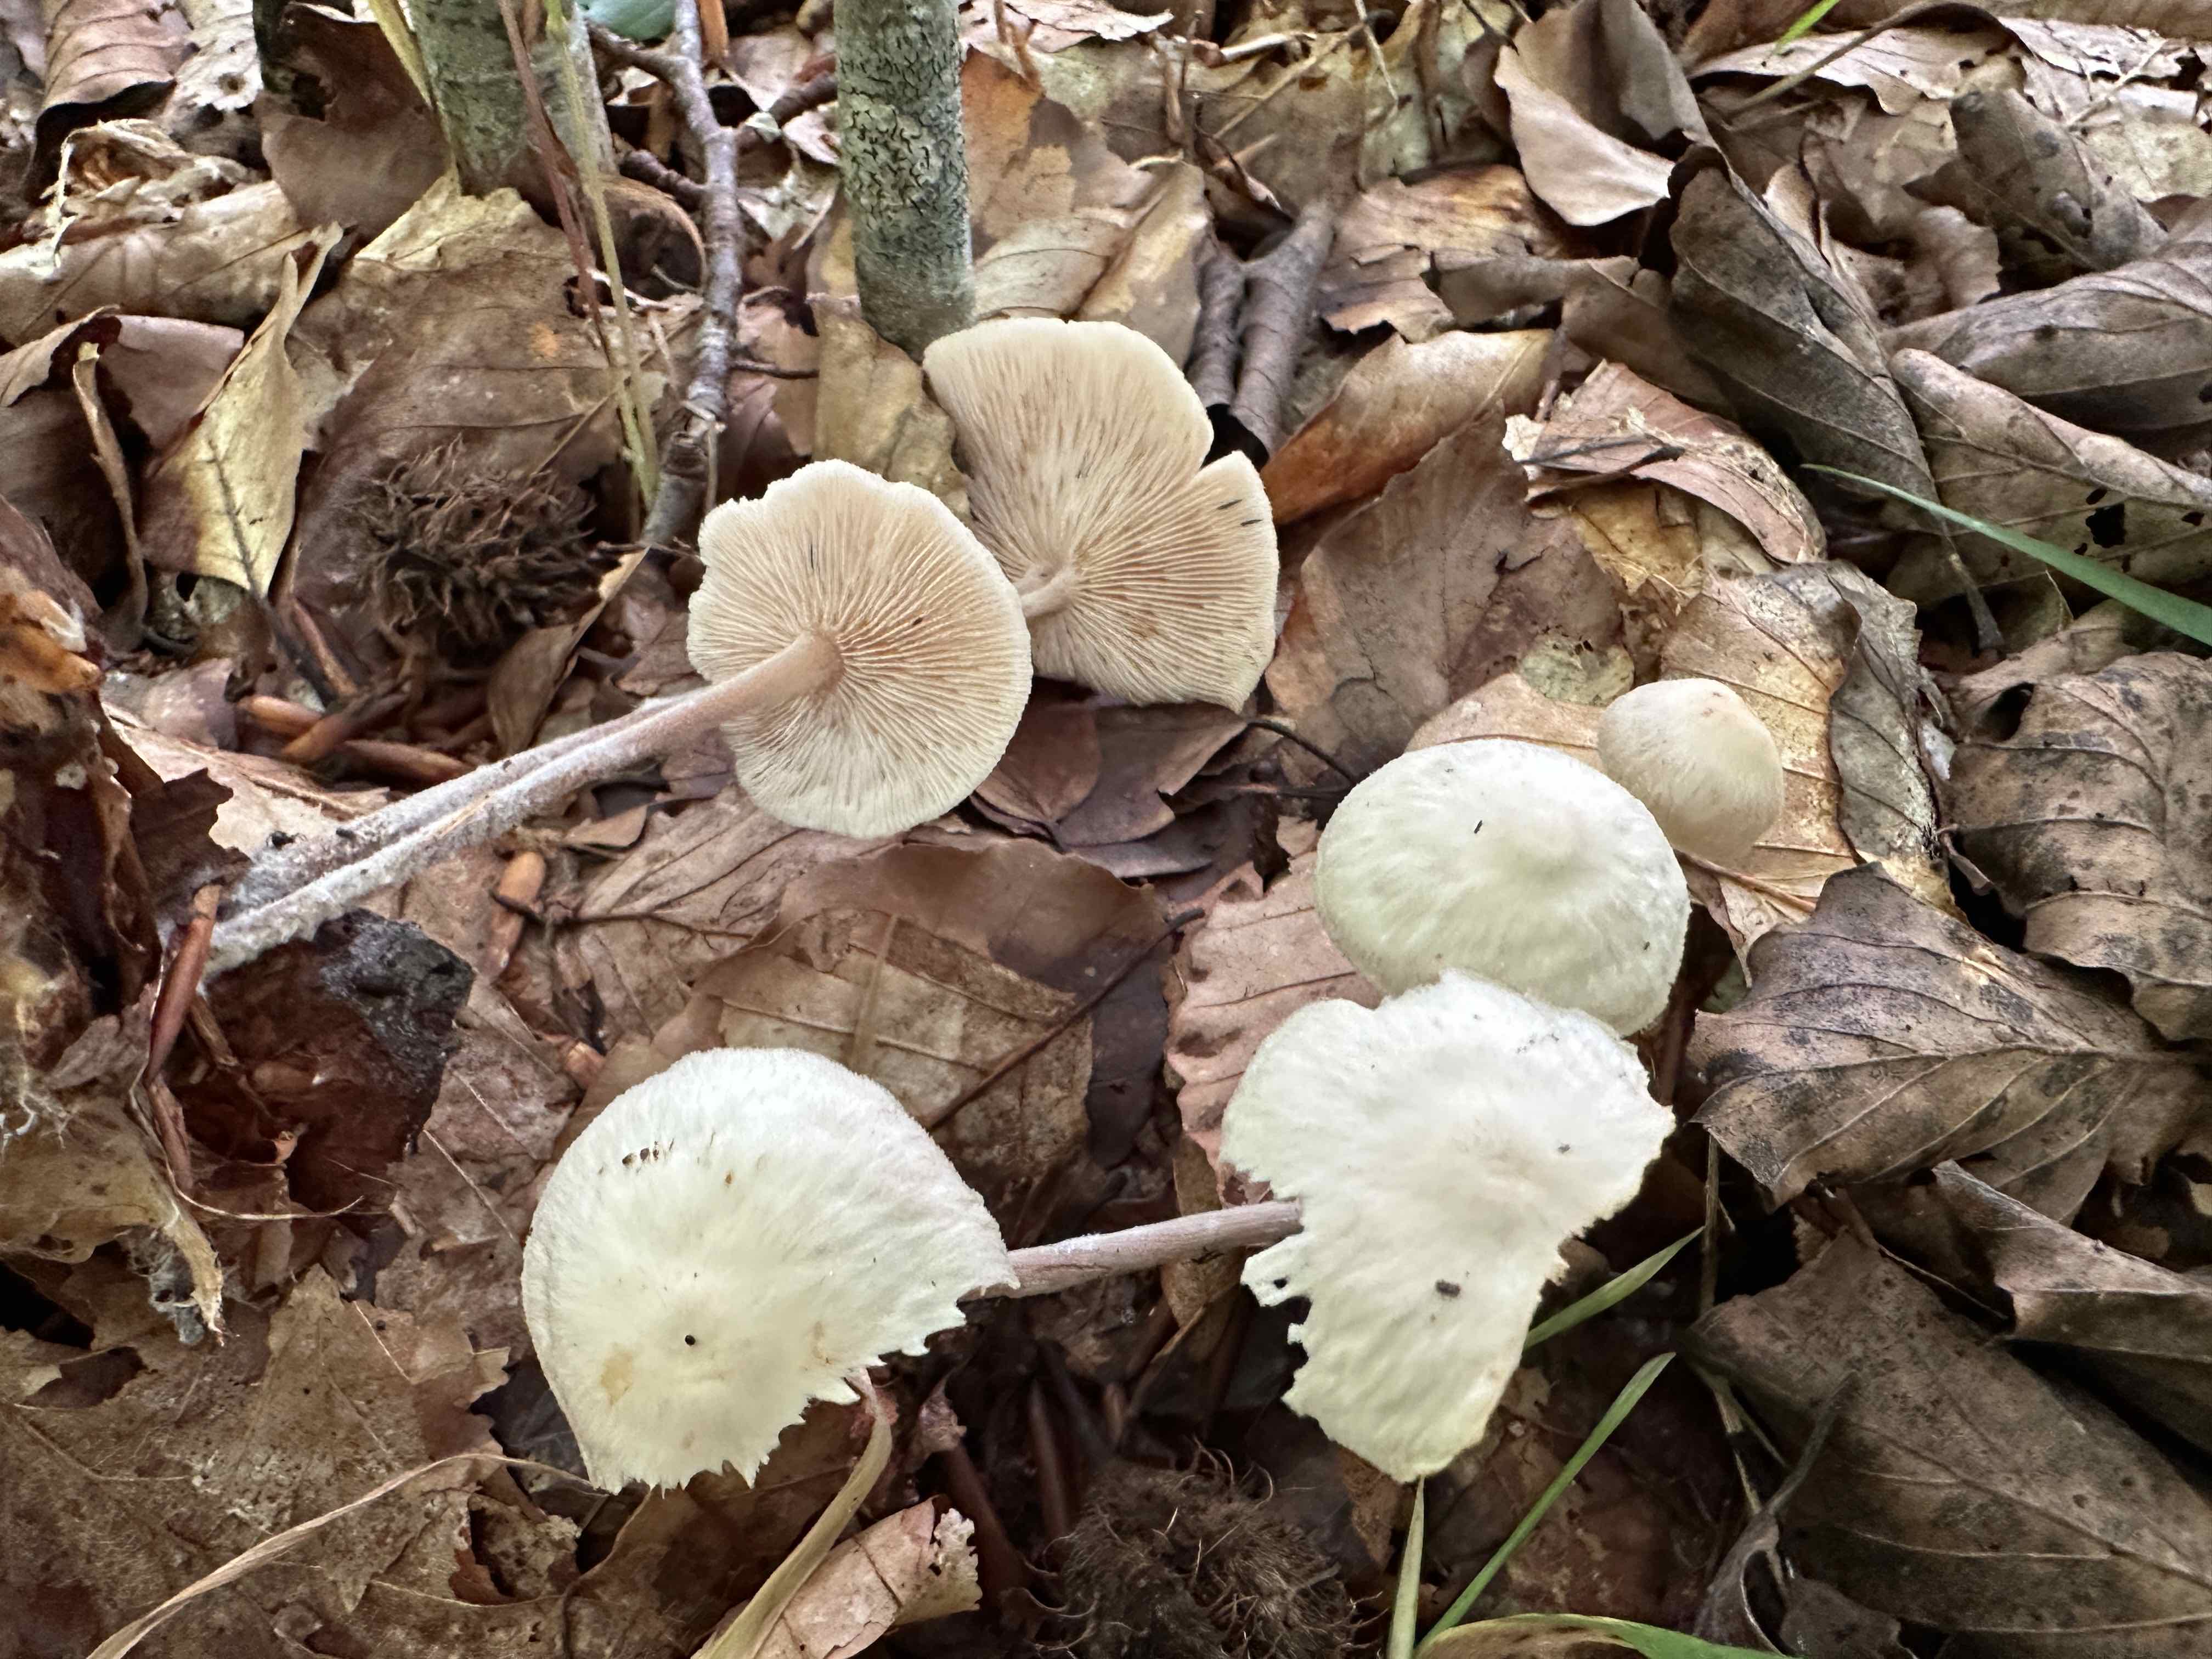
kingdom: Fungi
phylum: Basidiomycota
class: Agaricomycetes
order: Agaricales
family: Omphalotaceae
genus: Collybiopsis
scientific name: Collybiopsis confluens
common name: knippe-fladhat
